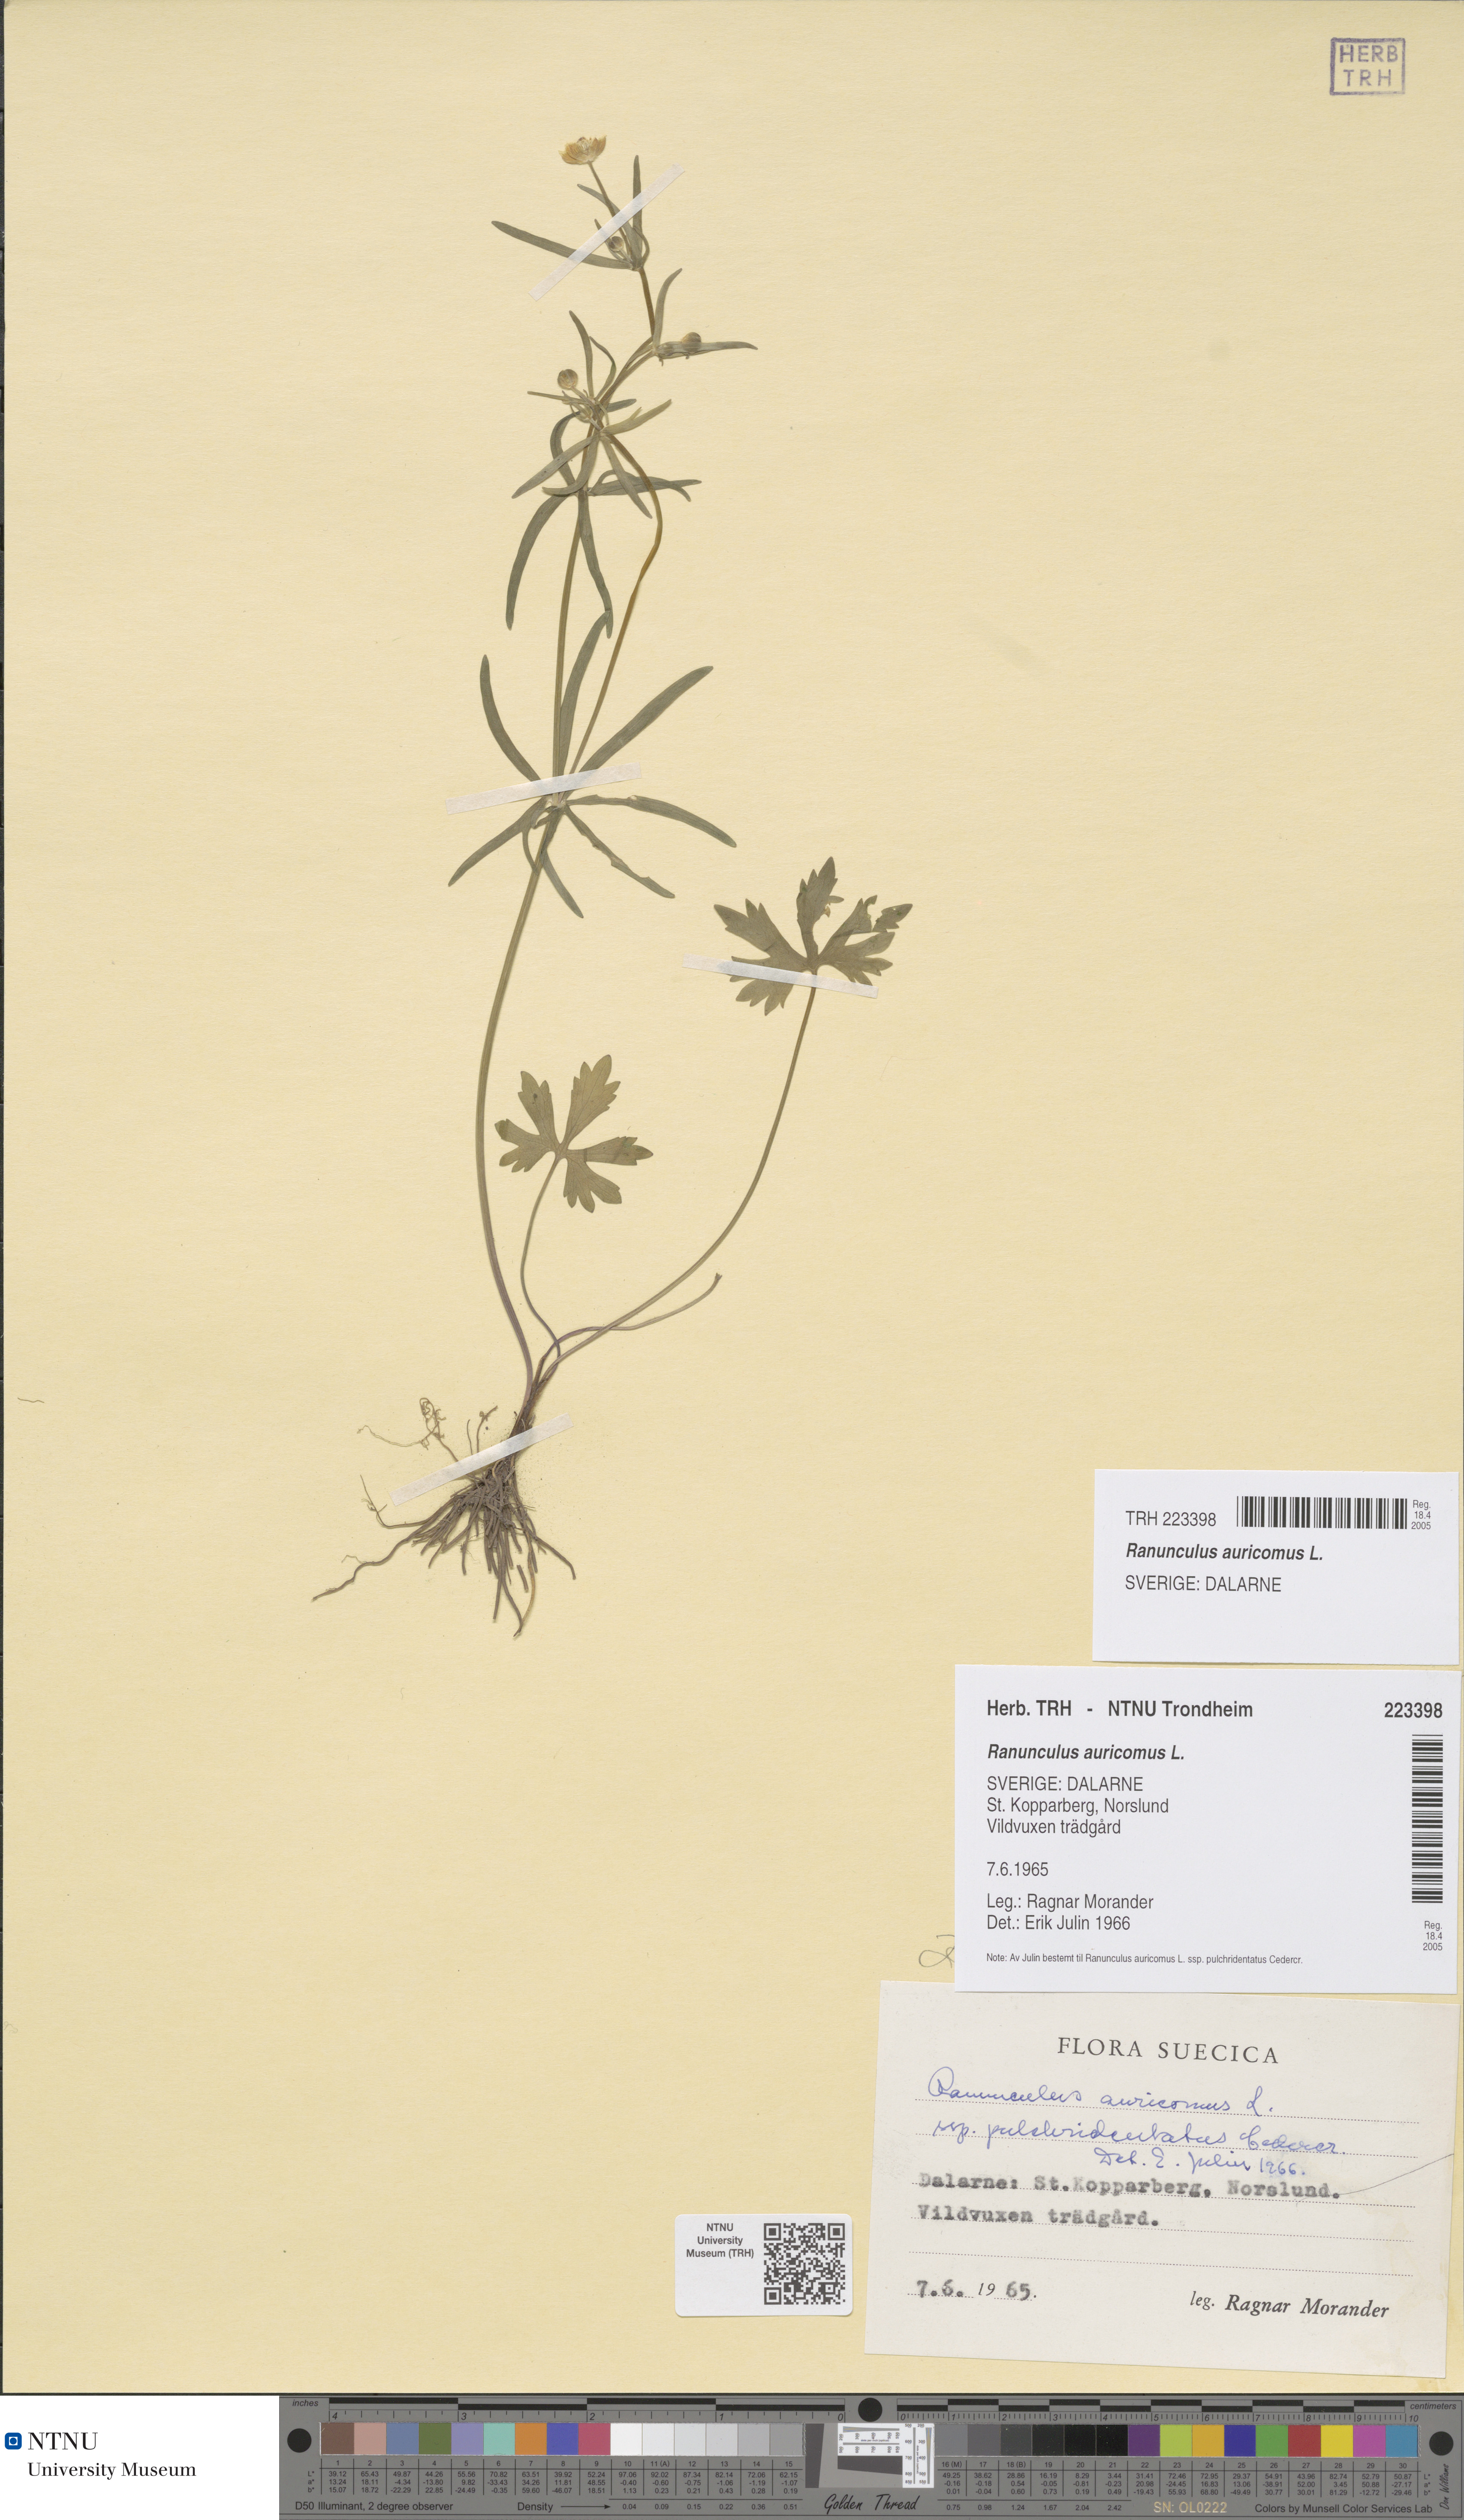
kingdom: Plantae
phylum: Tracheophyta
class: Magnoliopsida
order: Ranunculales
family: Ranunculaceae
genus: Ranunculus
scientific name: Ranunculus auricomus
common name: Goldilocks buttercup
